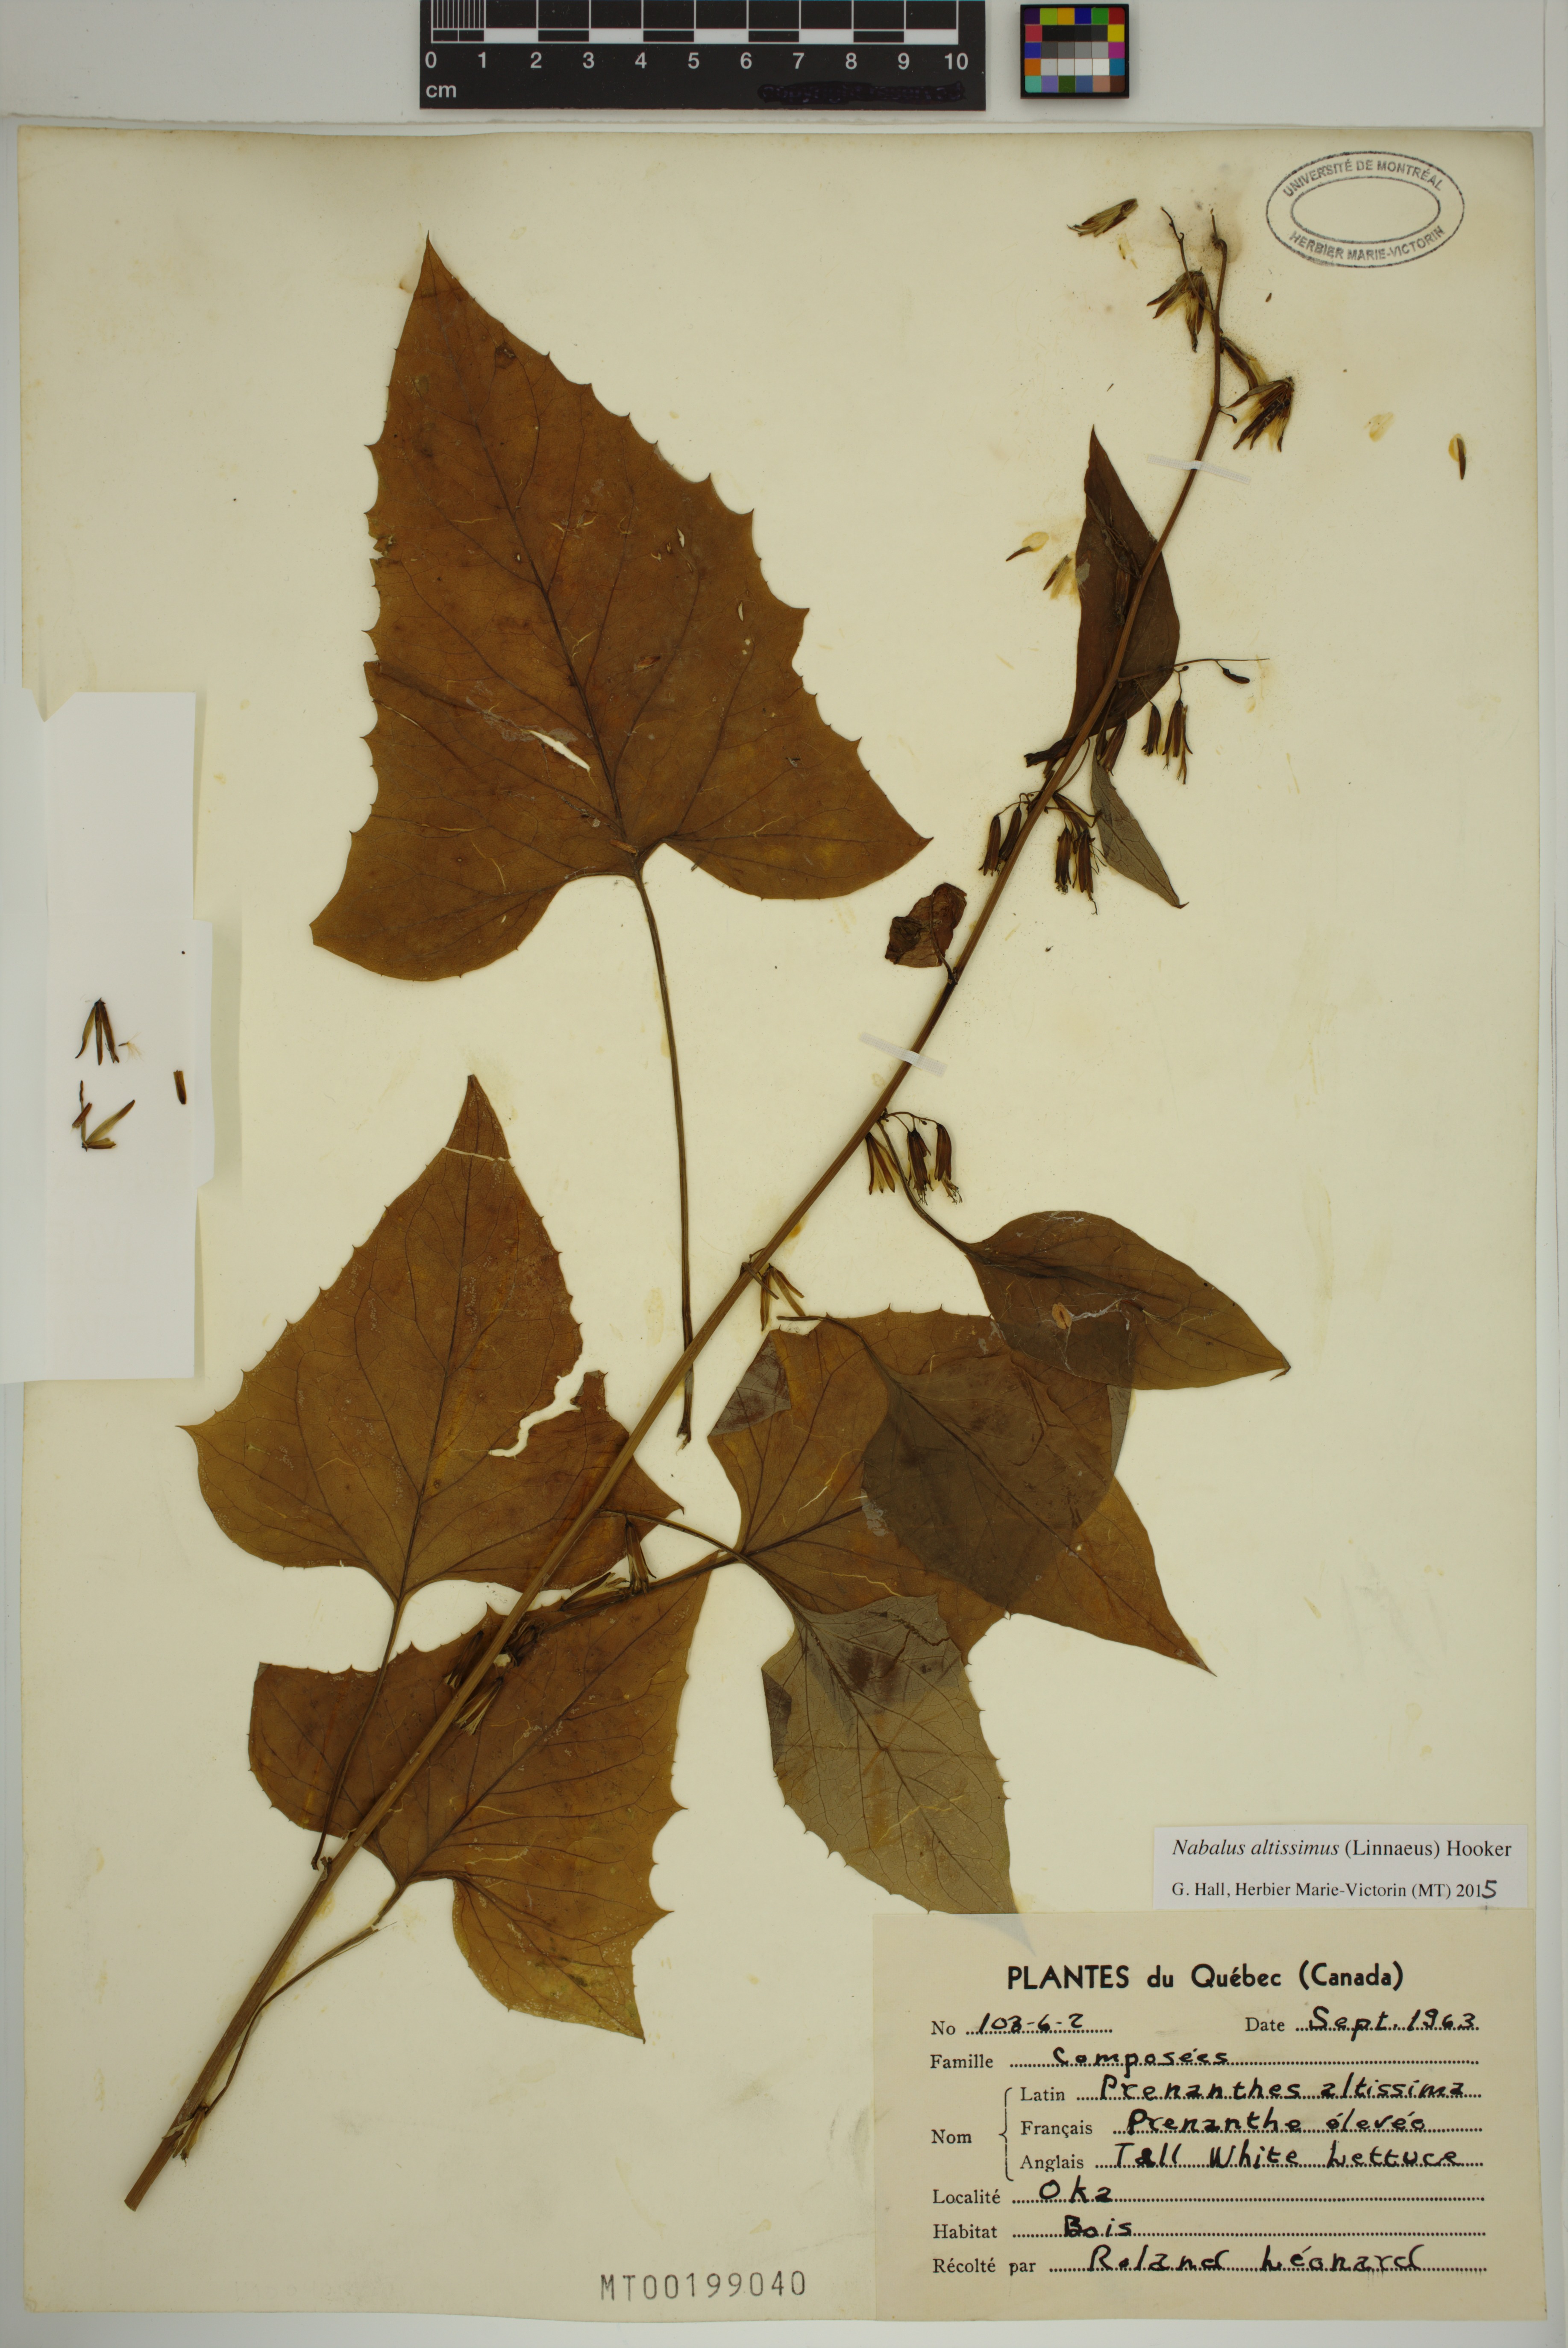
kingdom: Plantae
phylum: Tracheophyta
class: Magnoliopsida
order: Asterales
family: Asteraceae
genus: Nabalus
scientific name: Nabalus altissima
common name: Tall rattlesnakeroot
